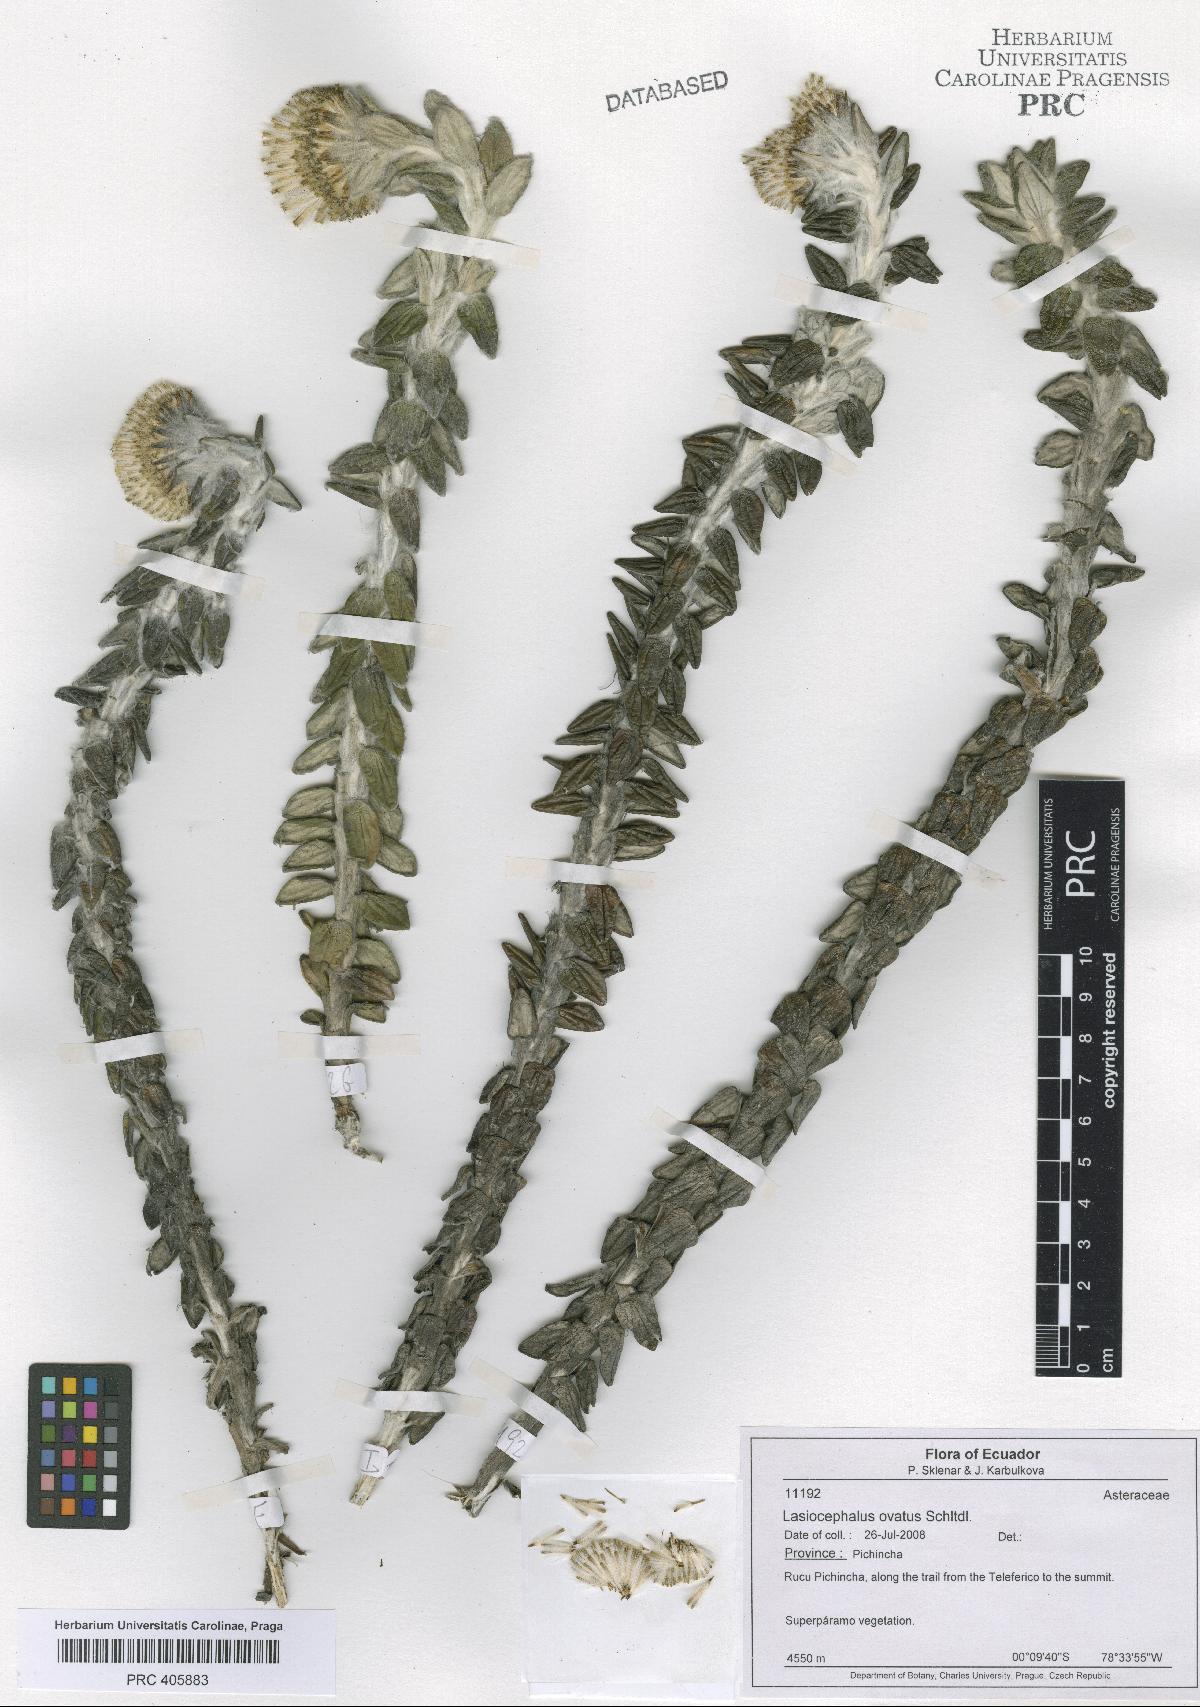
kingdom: Plantae
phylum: Tracheophyta
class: Magnoliopsida
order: Asterales
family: Asteraceae
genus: Lasiocephalus
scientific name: Lasiocephalus ovatus
